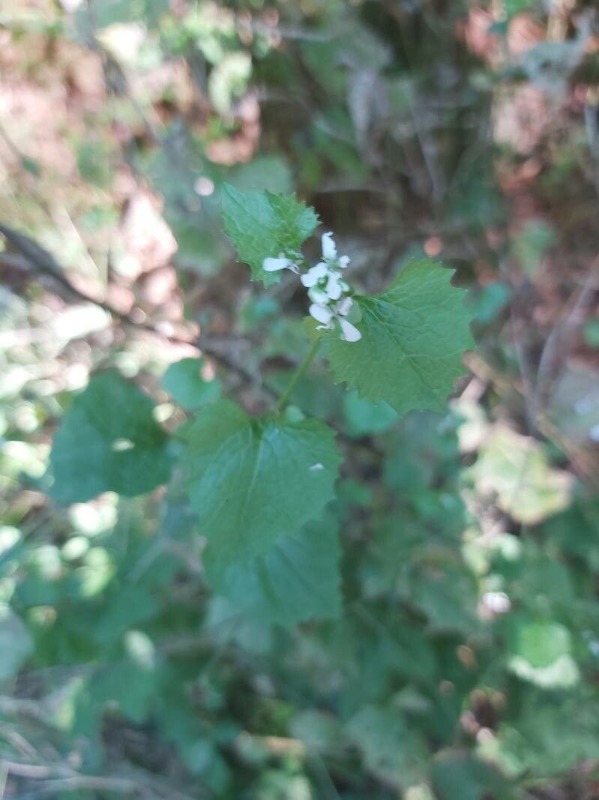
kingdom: Plantae
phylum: Tracheophyta
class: Magnoliopsida
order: Brassicales
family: Brassicaceae
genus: Alliaria
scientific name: Alliaria petiolata
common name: Løgkarse
